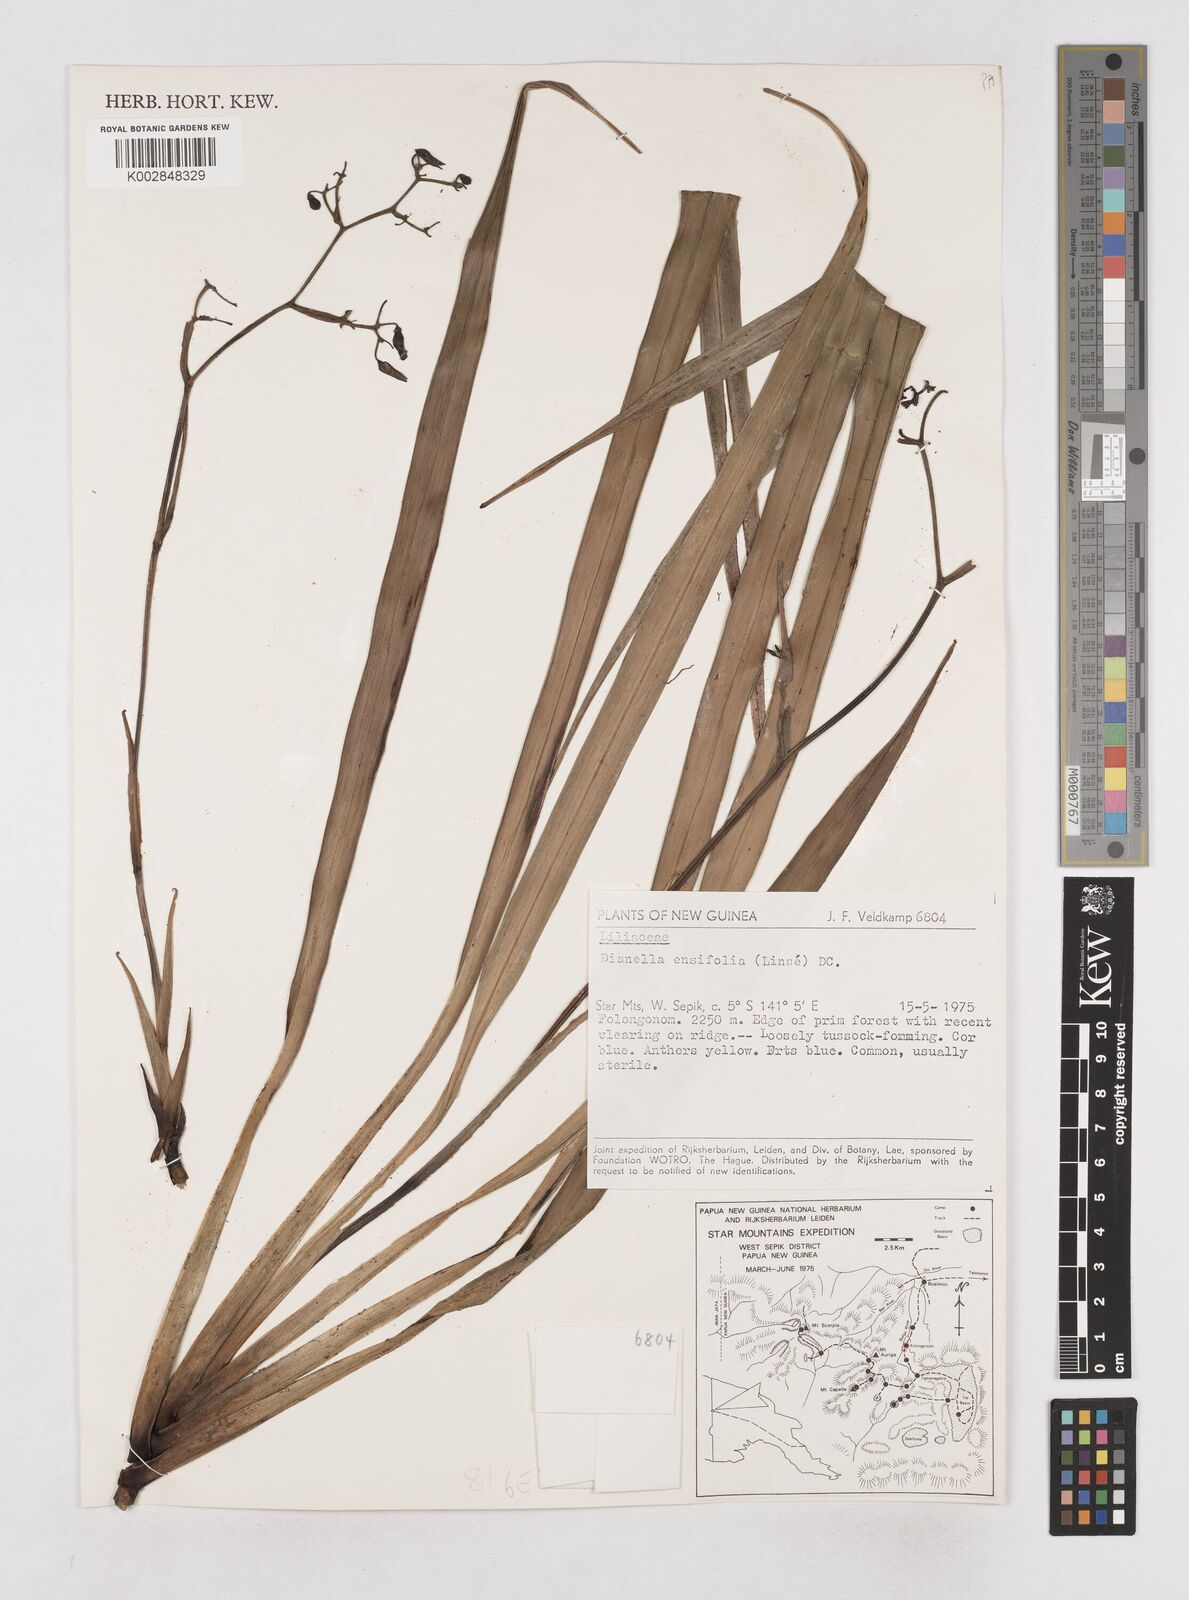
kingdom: Plantae
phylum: Tracheophyta
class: Liliopsida
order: Asparagales
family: Asphodelaceae
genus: Dianella
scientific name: Dianella ensifolia
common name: New zealand lilyplant
